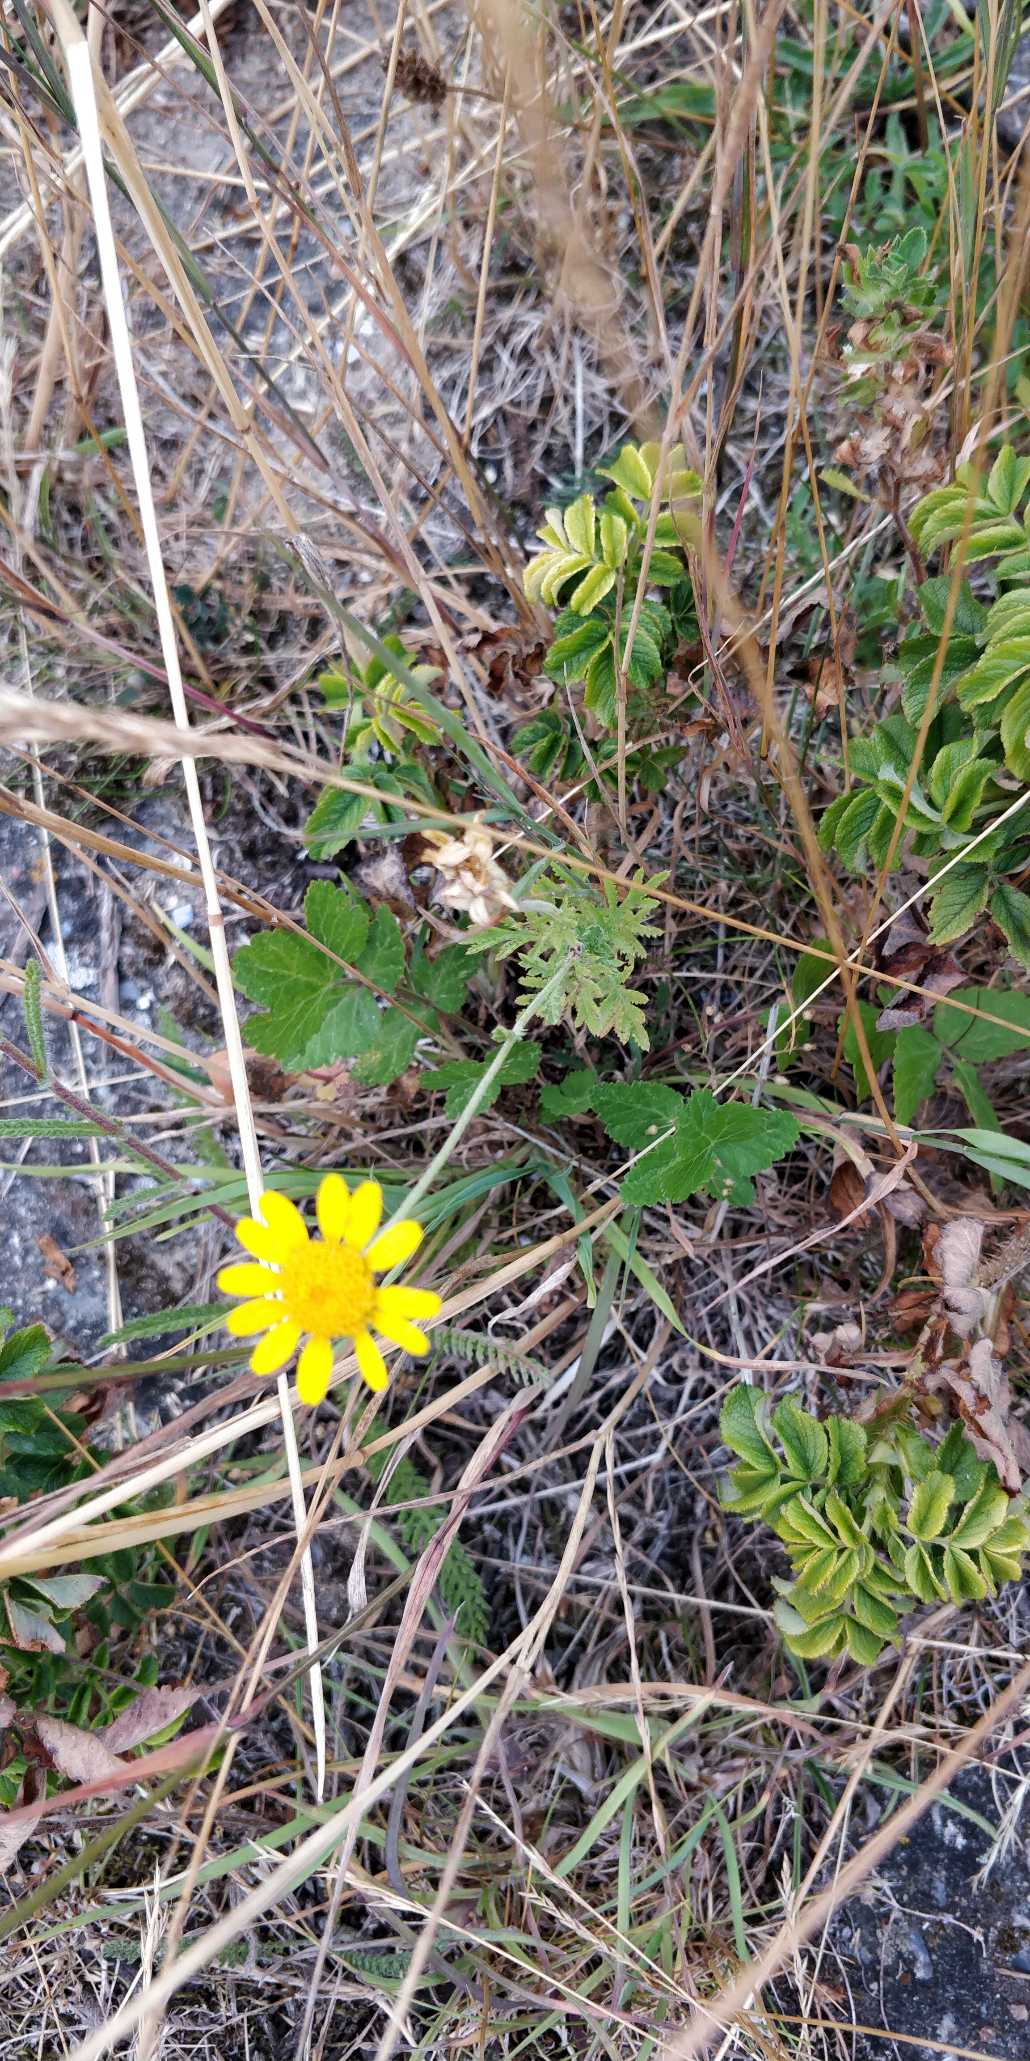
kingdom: Plantae
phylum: Tracheophyta
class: Magnoliopsida
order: Asterales
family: Asteraceae
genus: Cota
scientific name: Cota tinctoria
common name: Farve-gåseurt
